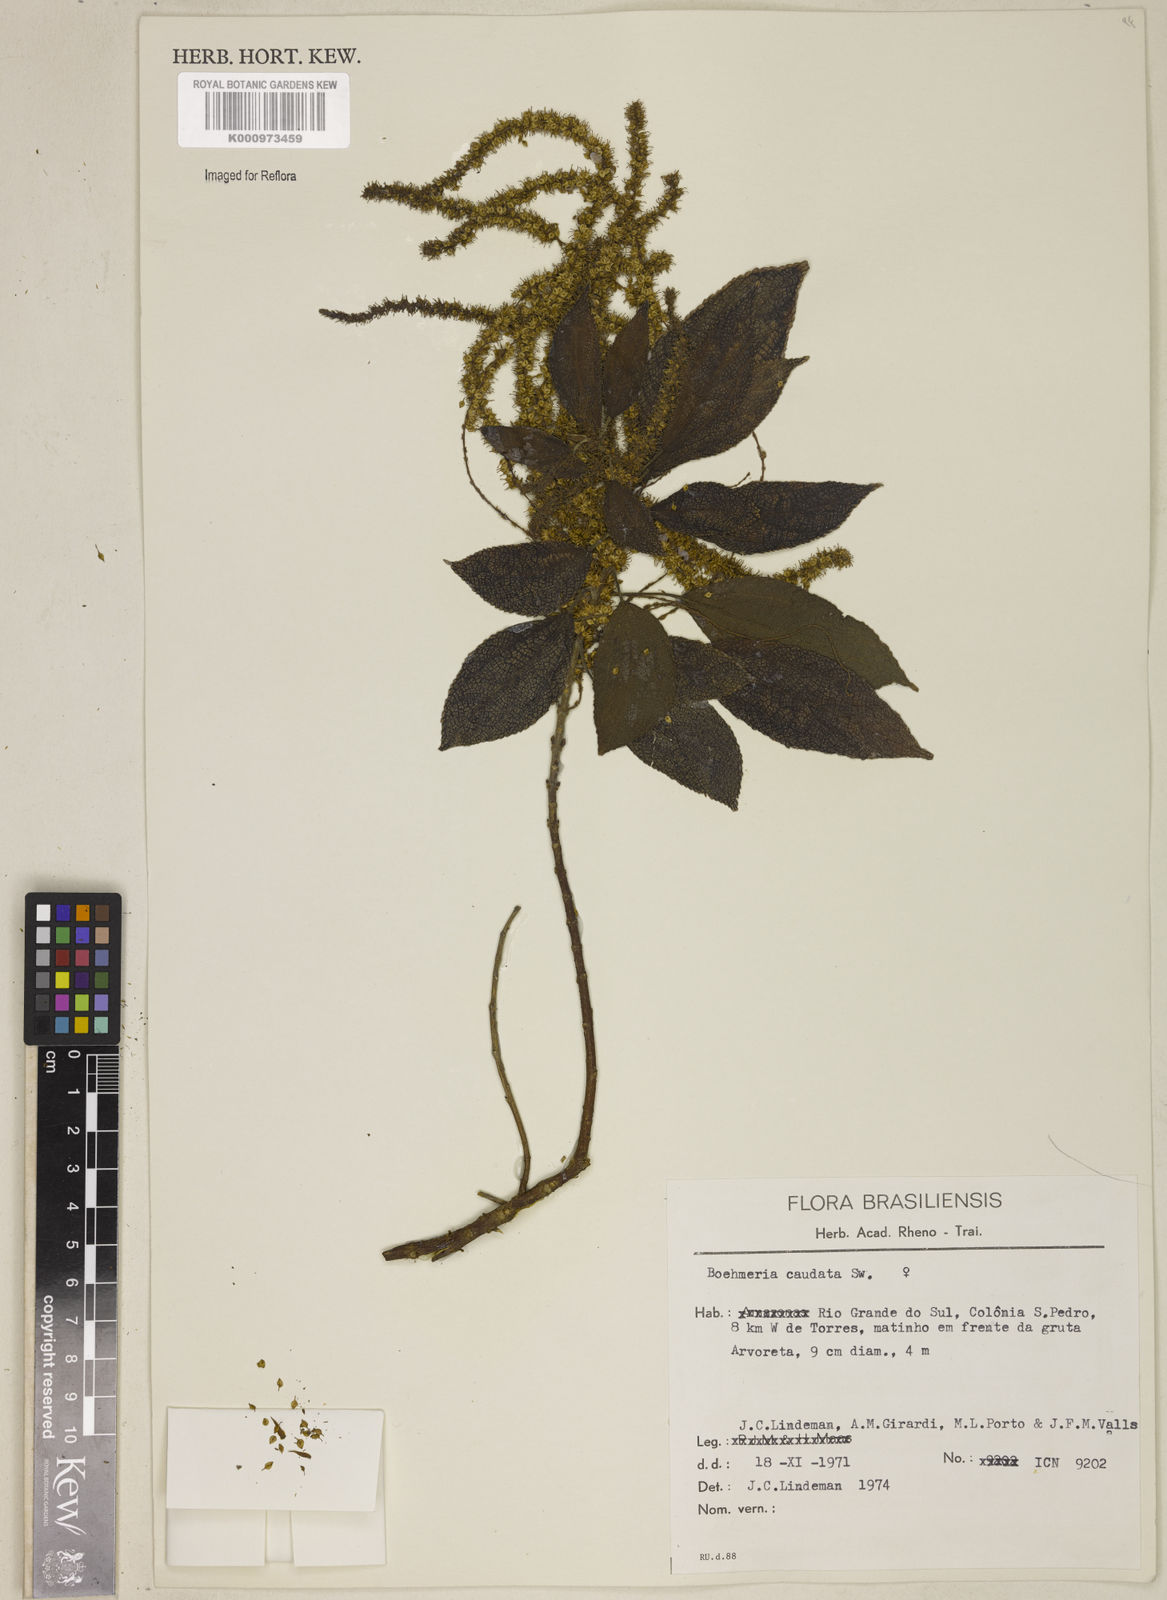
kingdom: Plantae
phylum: Tracheophyta
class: Magnoliopsida
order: Rosales
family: Urticaceae
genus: Boehmeria
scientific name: Boehmeria caudata
